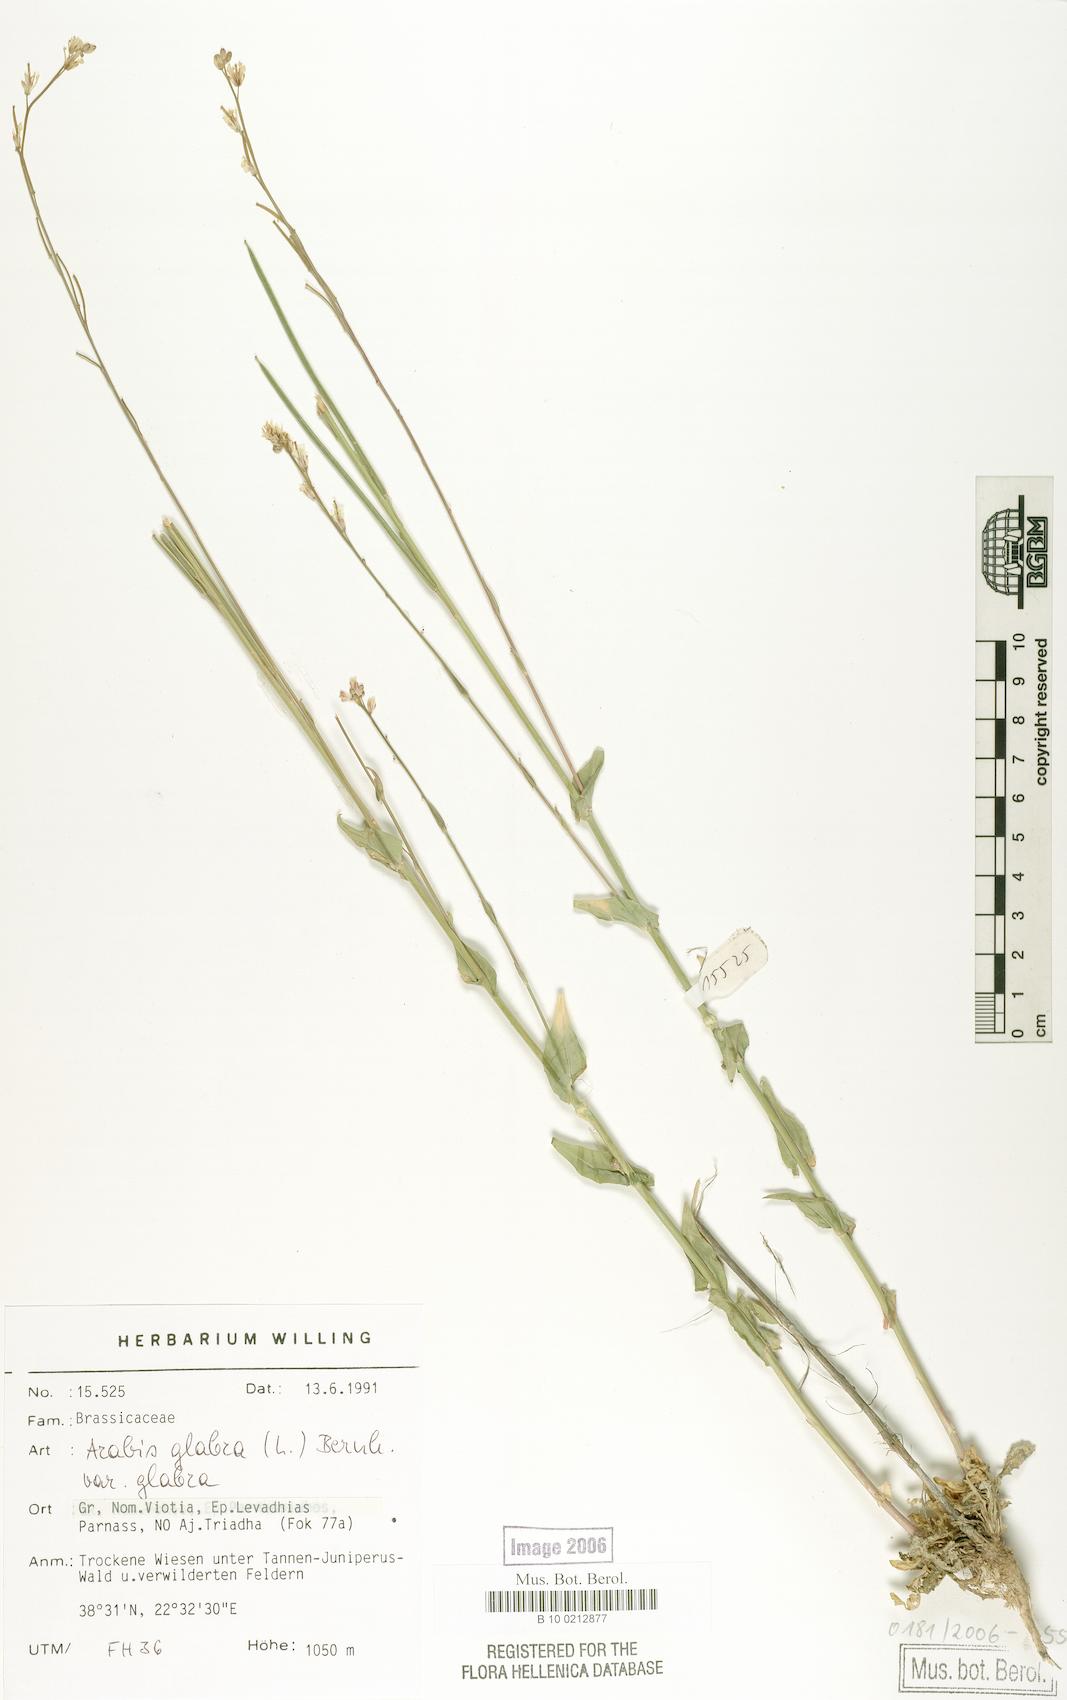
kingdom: Plantae
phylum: Tracheophyta
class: Magnoliopsida
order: Brassicales
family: Brassicaceae
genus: Turritis
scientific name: Turritis glabra
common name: Tower rockcress
